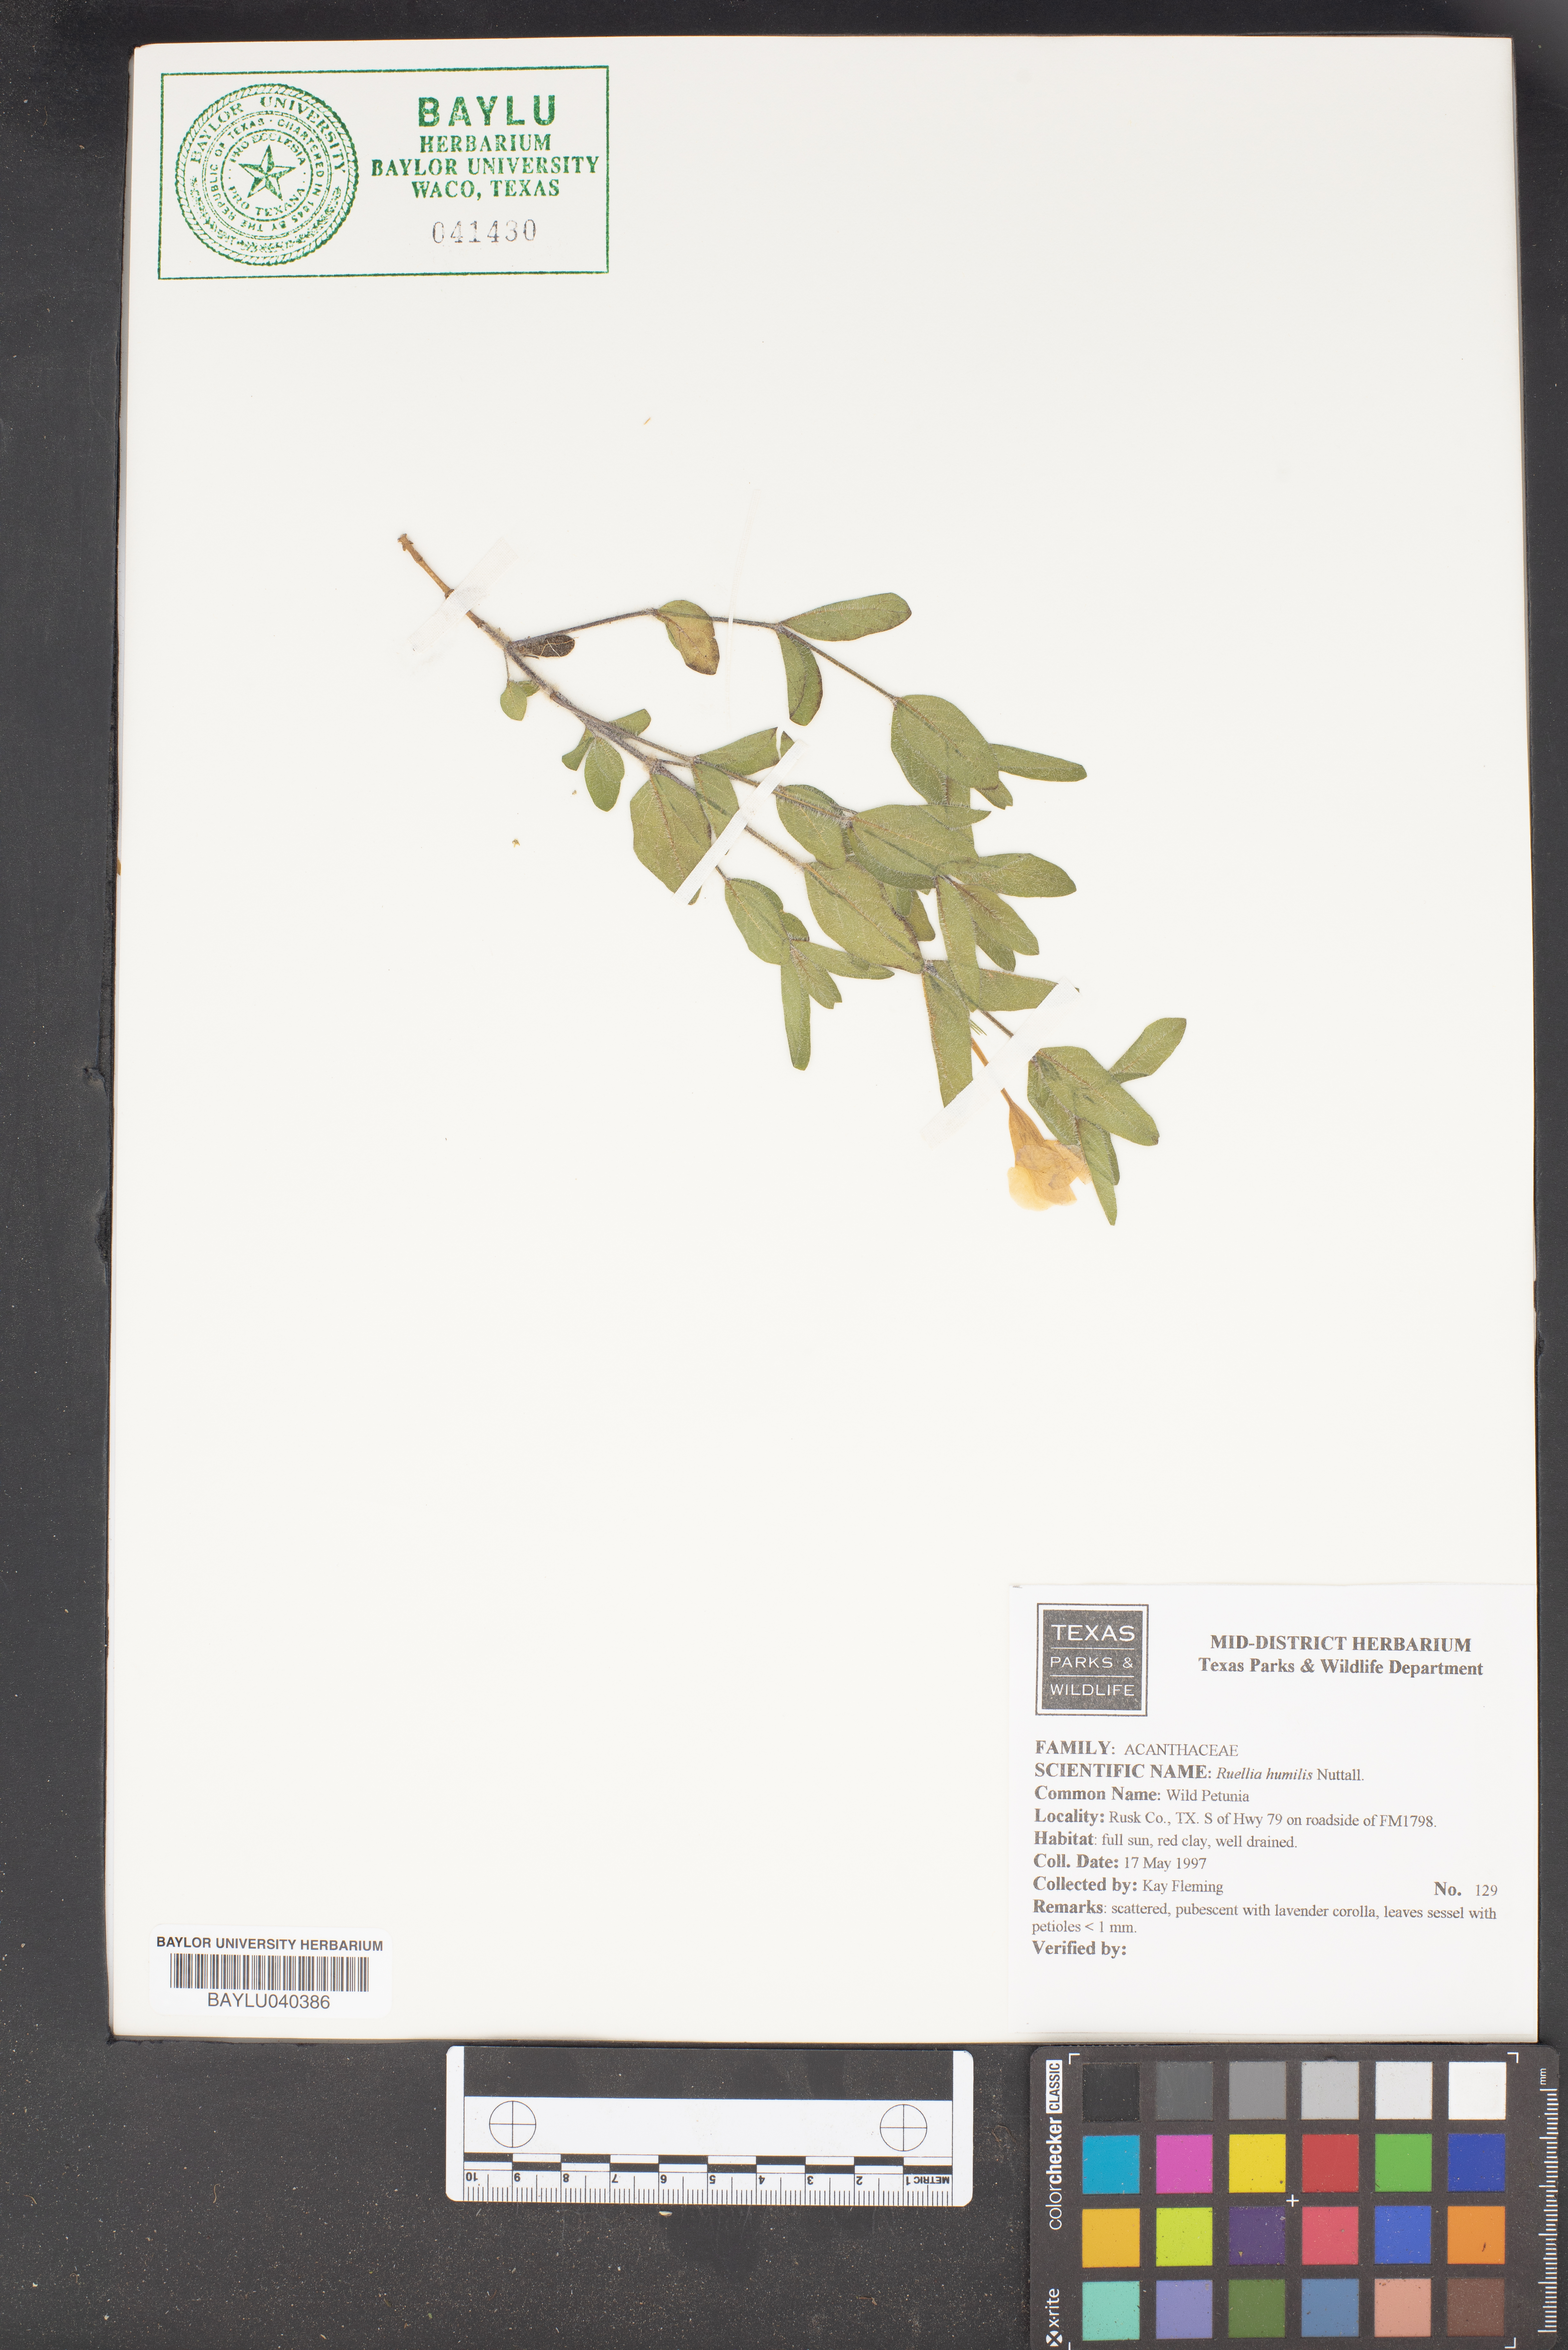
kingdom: Plantae
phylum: Tracheophyta
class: Magnoliopsida
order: Lamiales
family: Acanthaceae
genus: Ruellia
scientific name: Ruellia humilis
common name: Fringe-leaf ruellia
